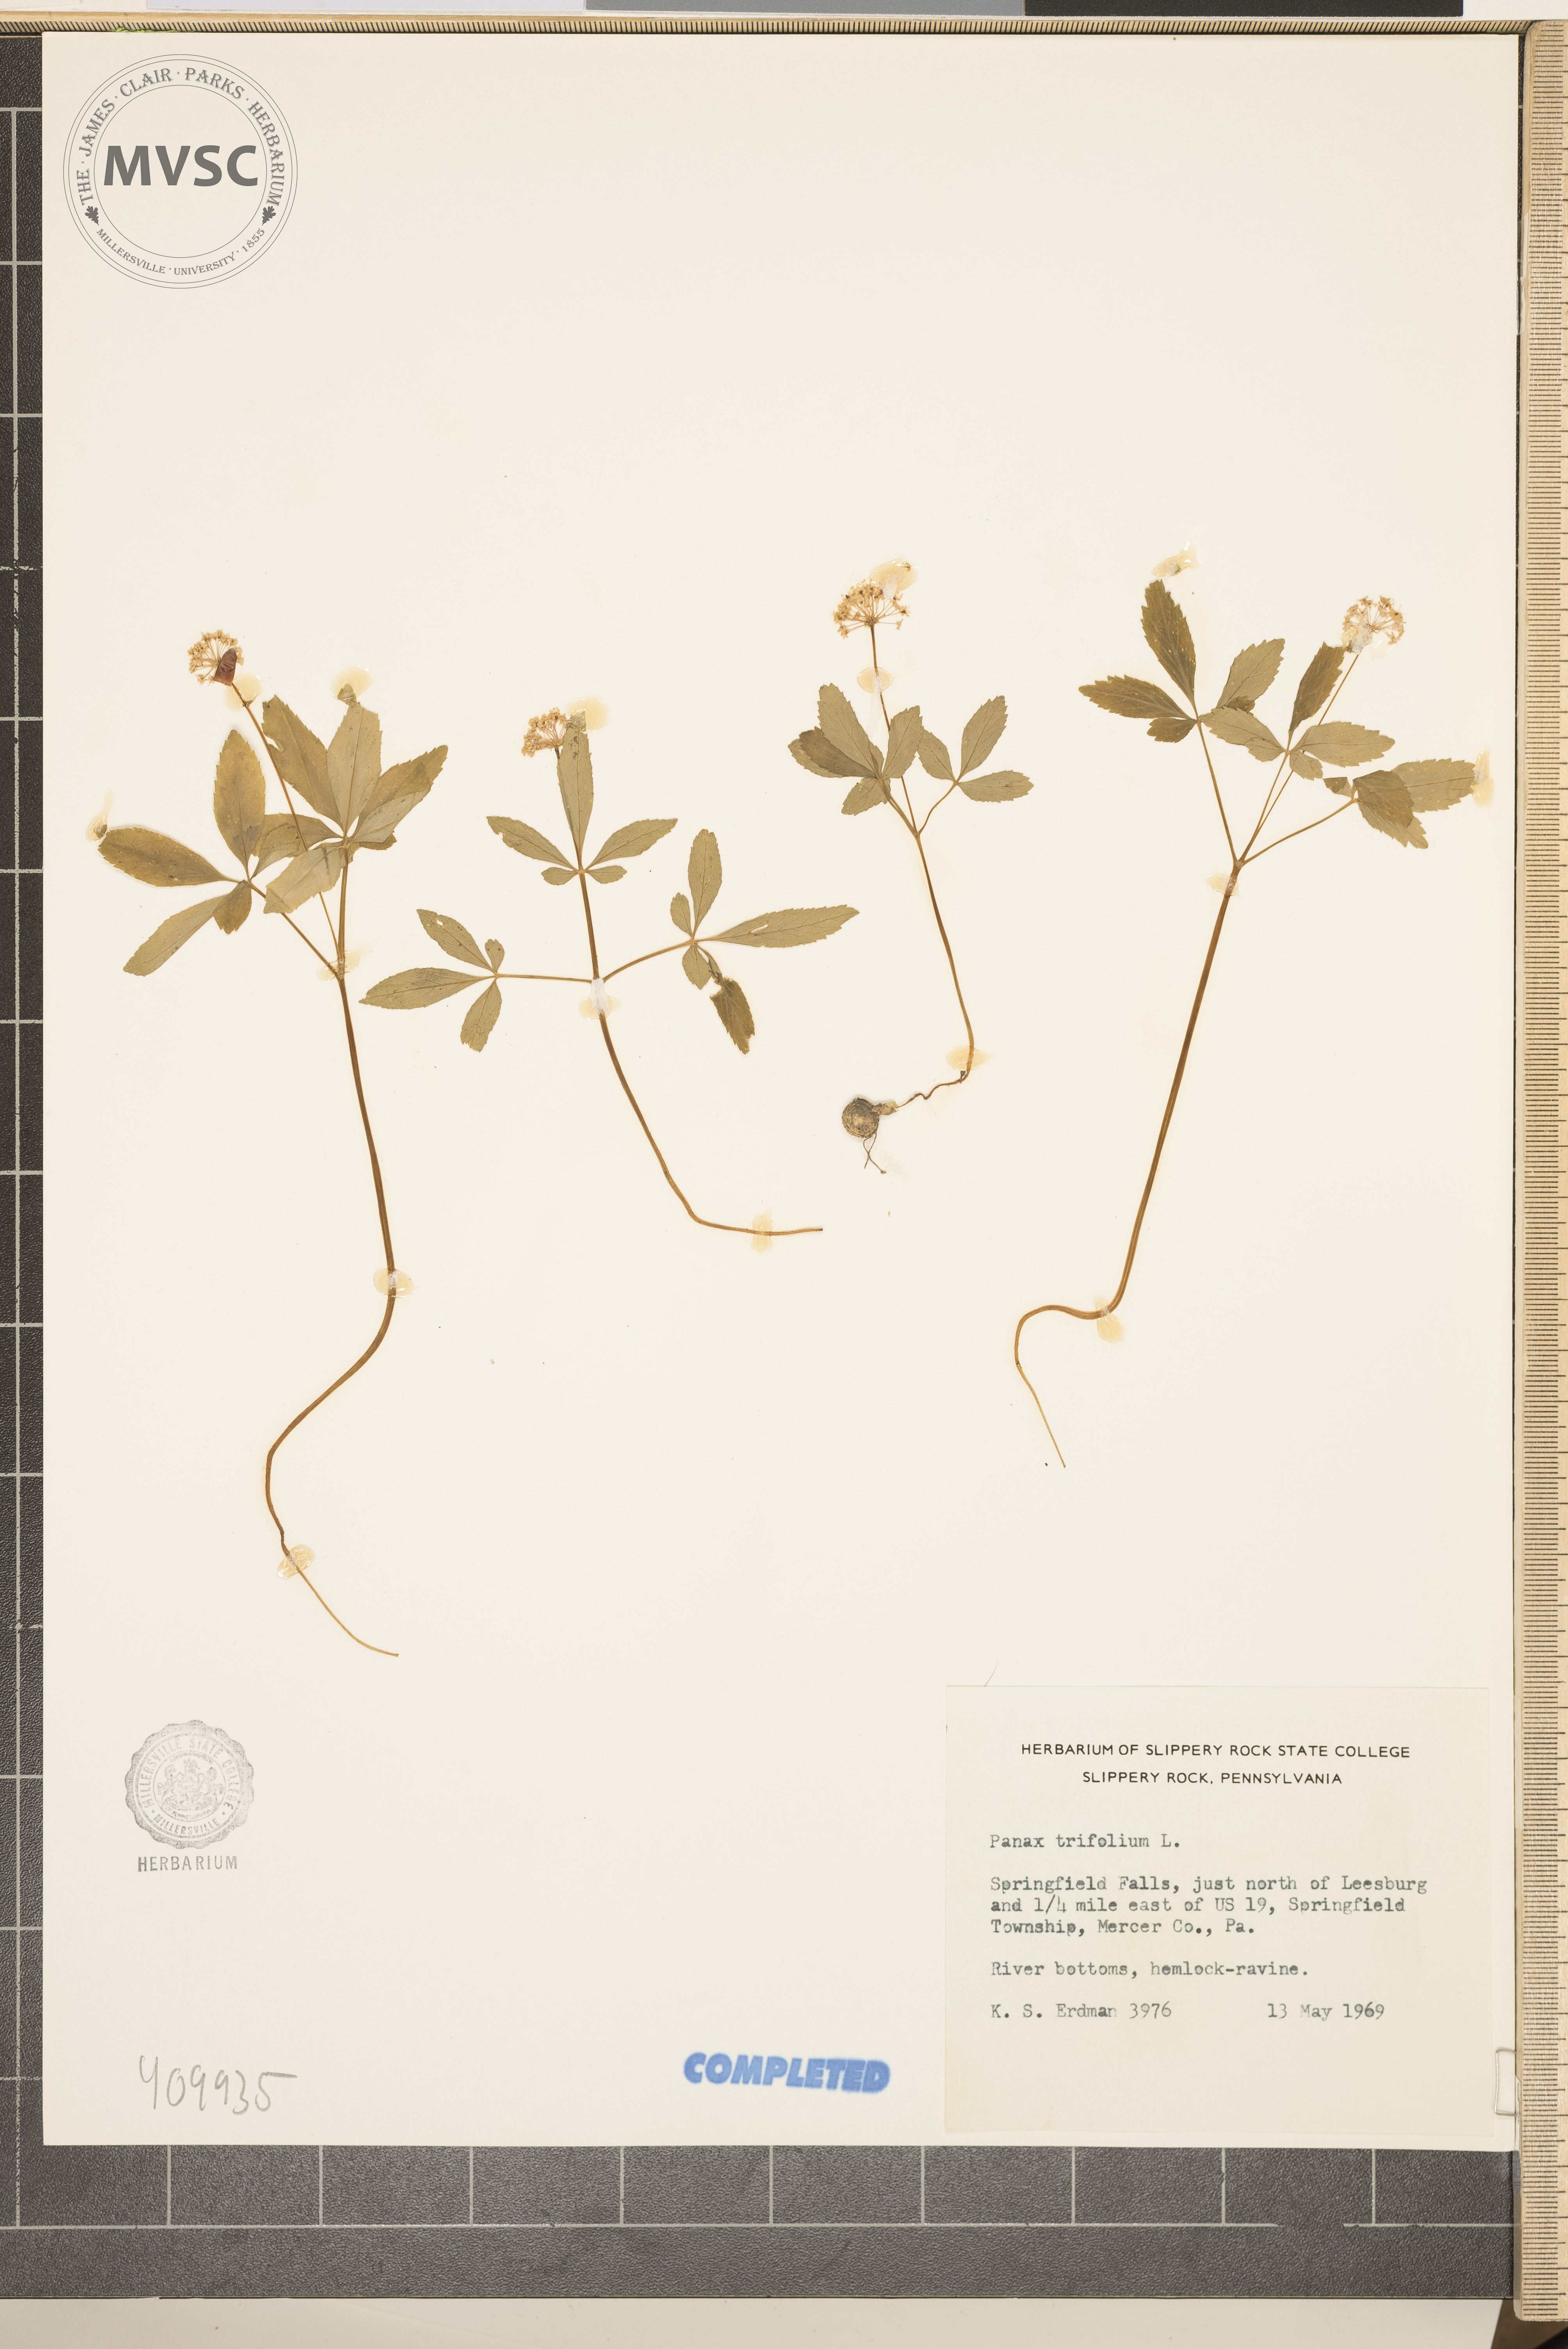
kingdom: Plantae
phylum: Tracheophyta
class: Magnoliopsida
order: Apiales
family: Araliaceae
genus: Panax
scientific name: Panax trifolius
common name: Dwarf ginseng
